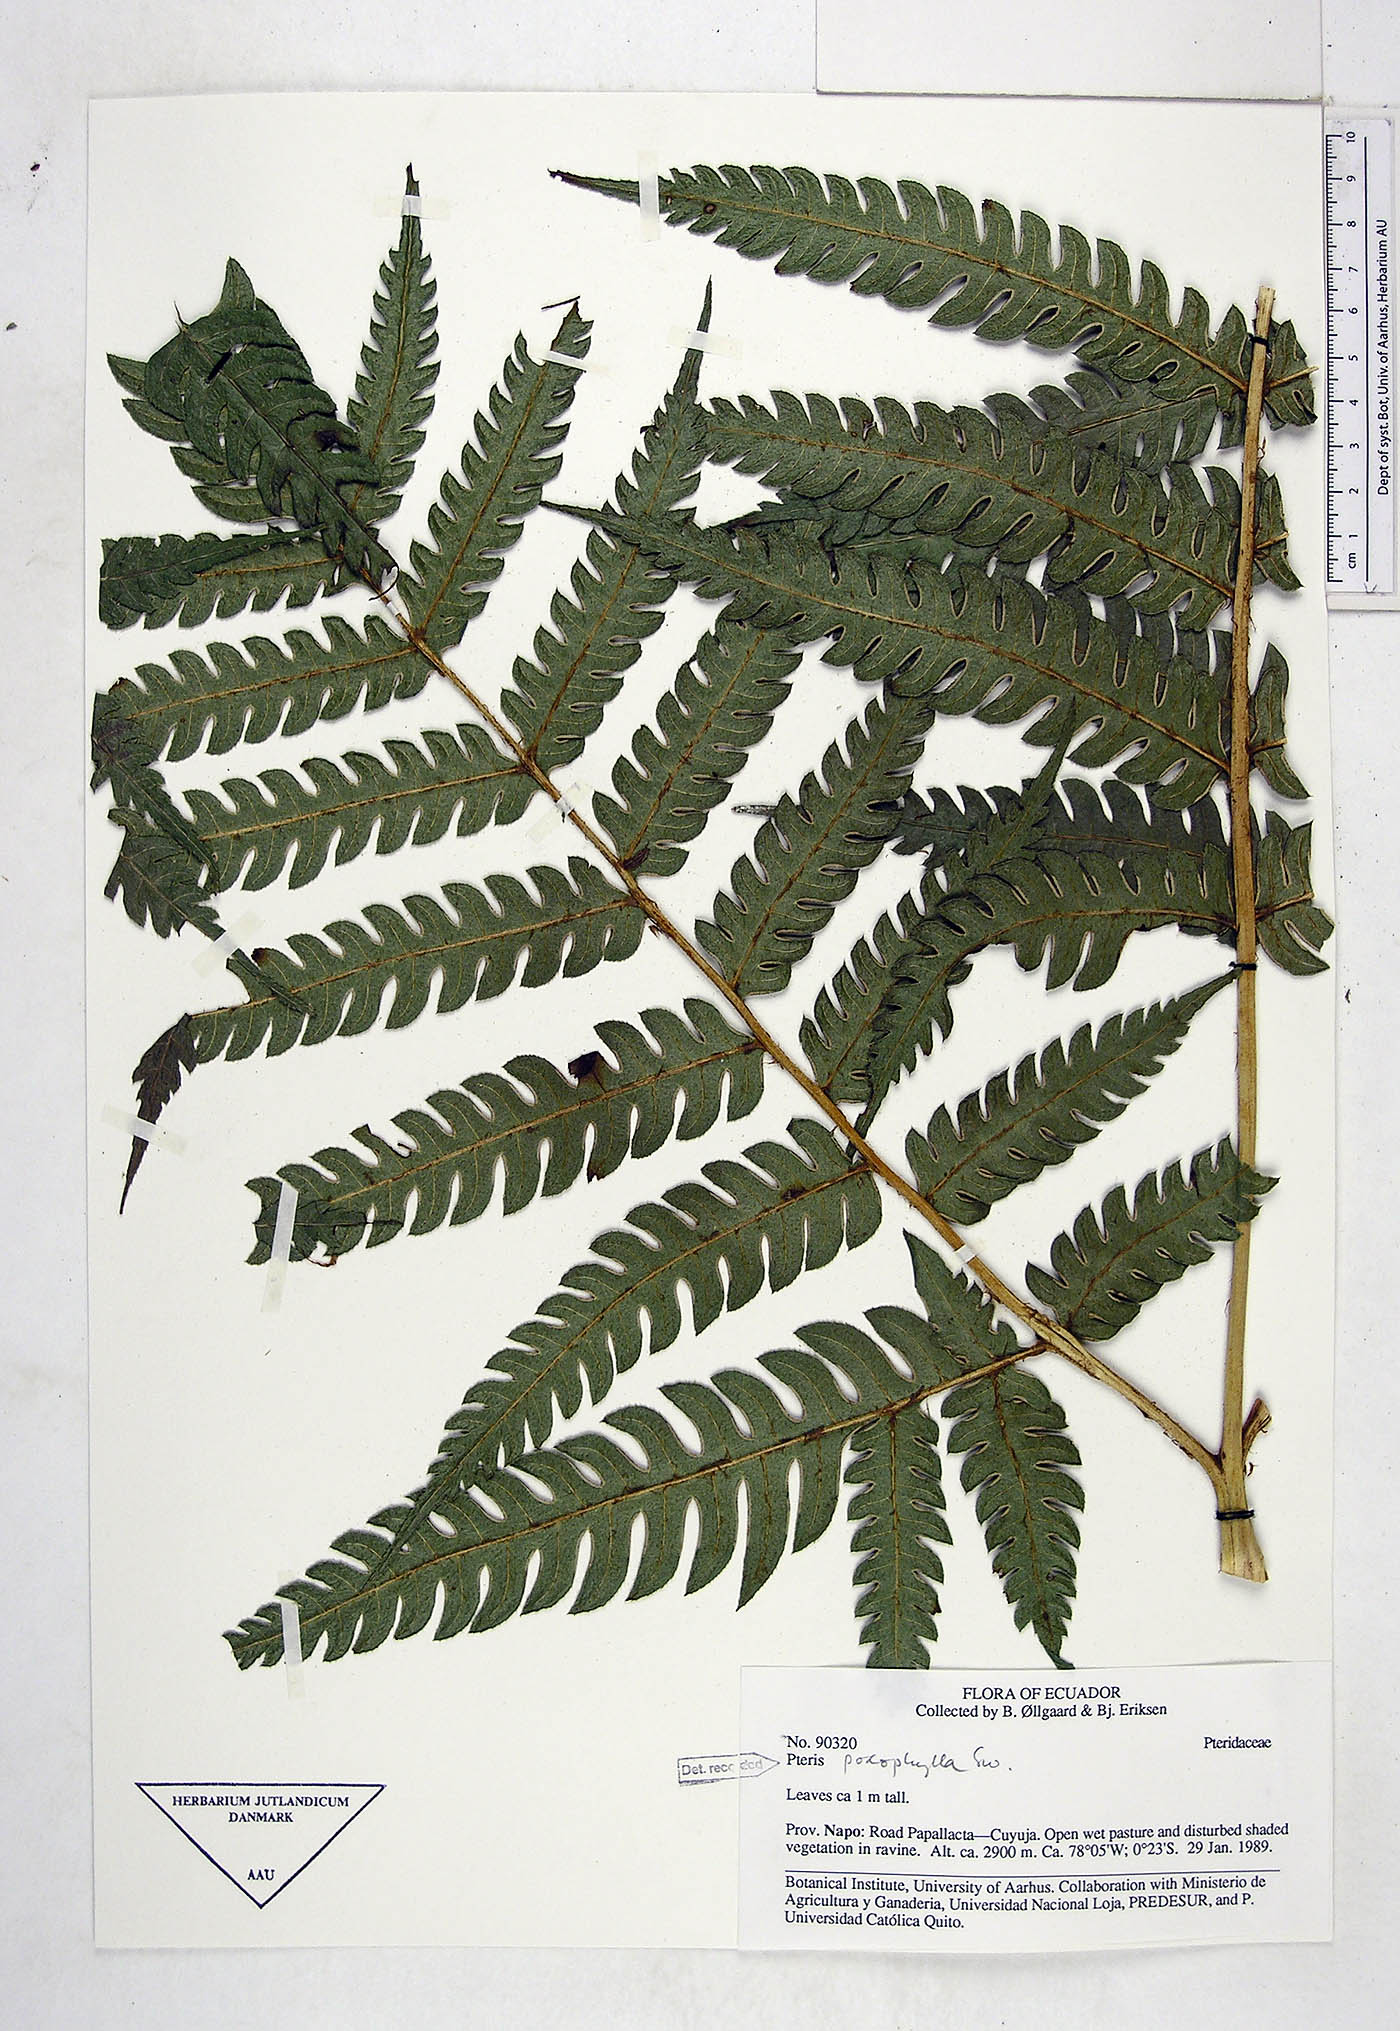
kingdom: Plantae
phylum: Tracheophyta
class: Polypodiopsida
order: Polypodiales
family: Pteridaceae
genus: Pteris
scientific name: Pteris podophylla
